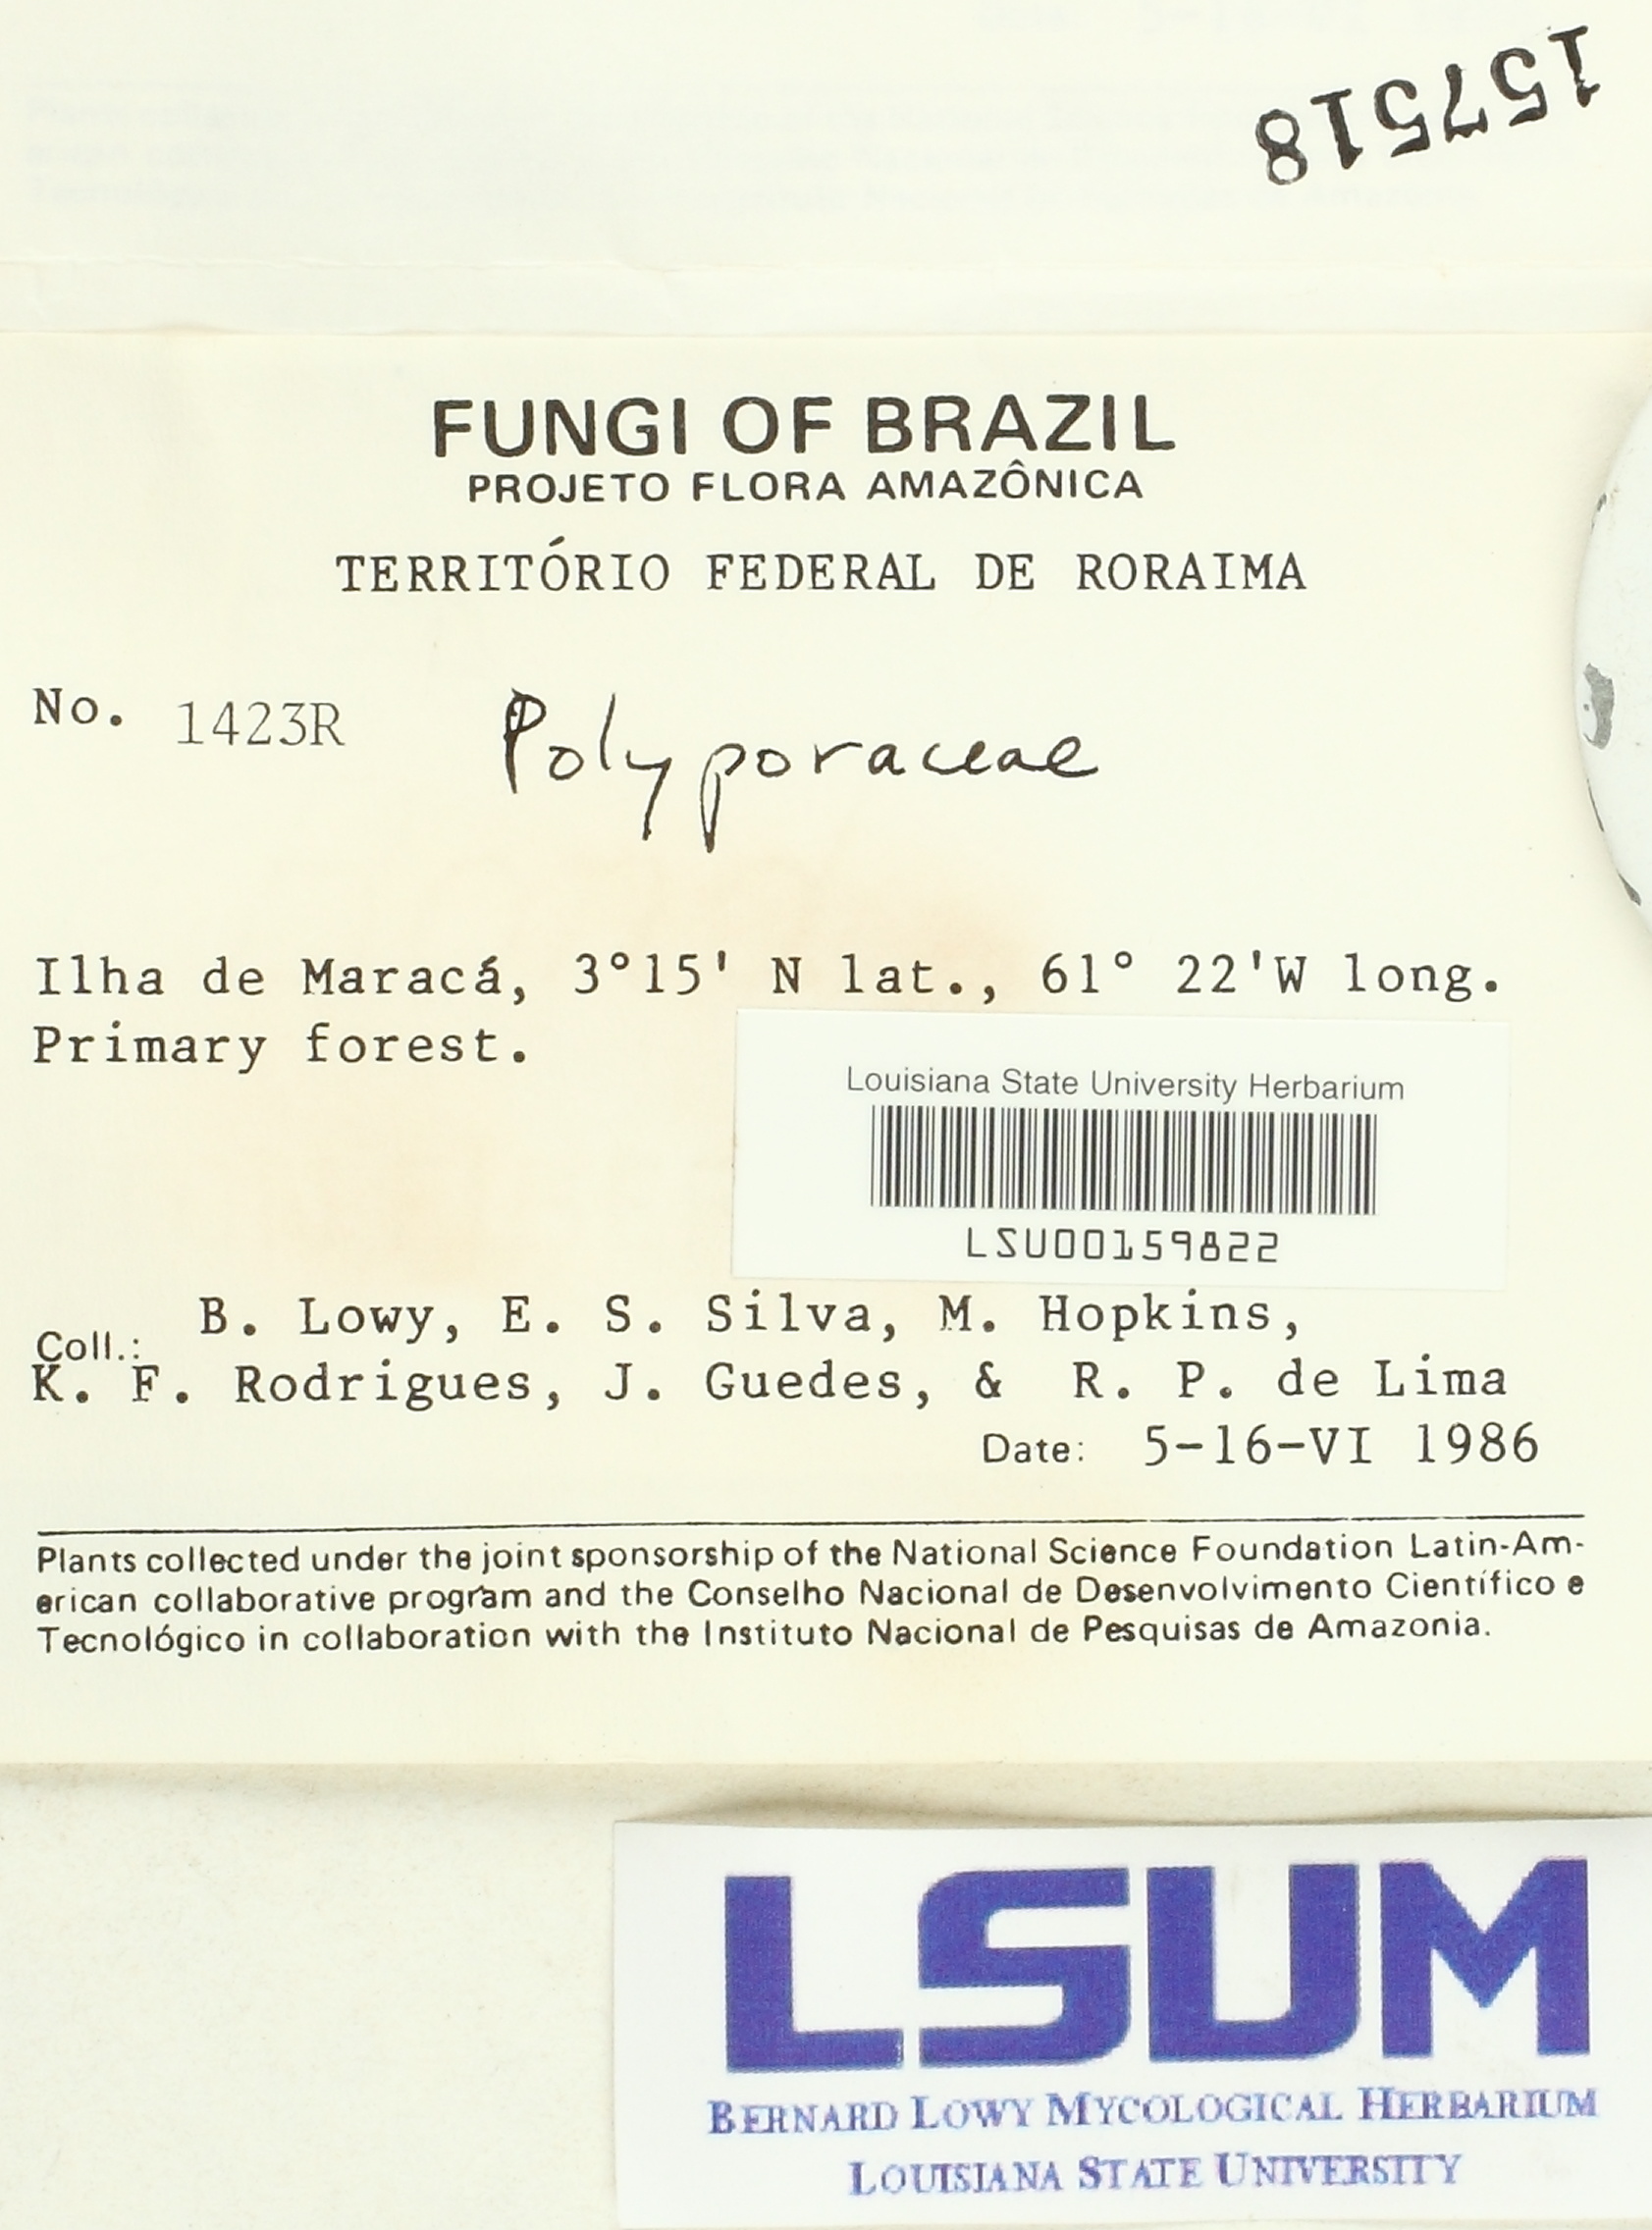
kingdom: Fungi
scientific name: Fungi
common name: Fungi
